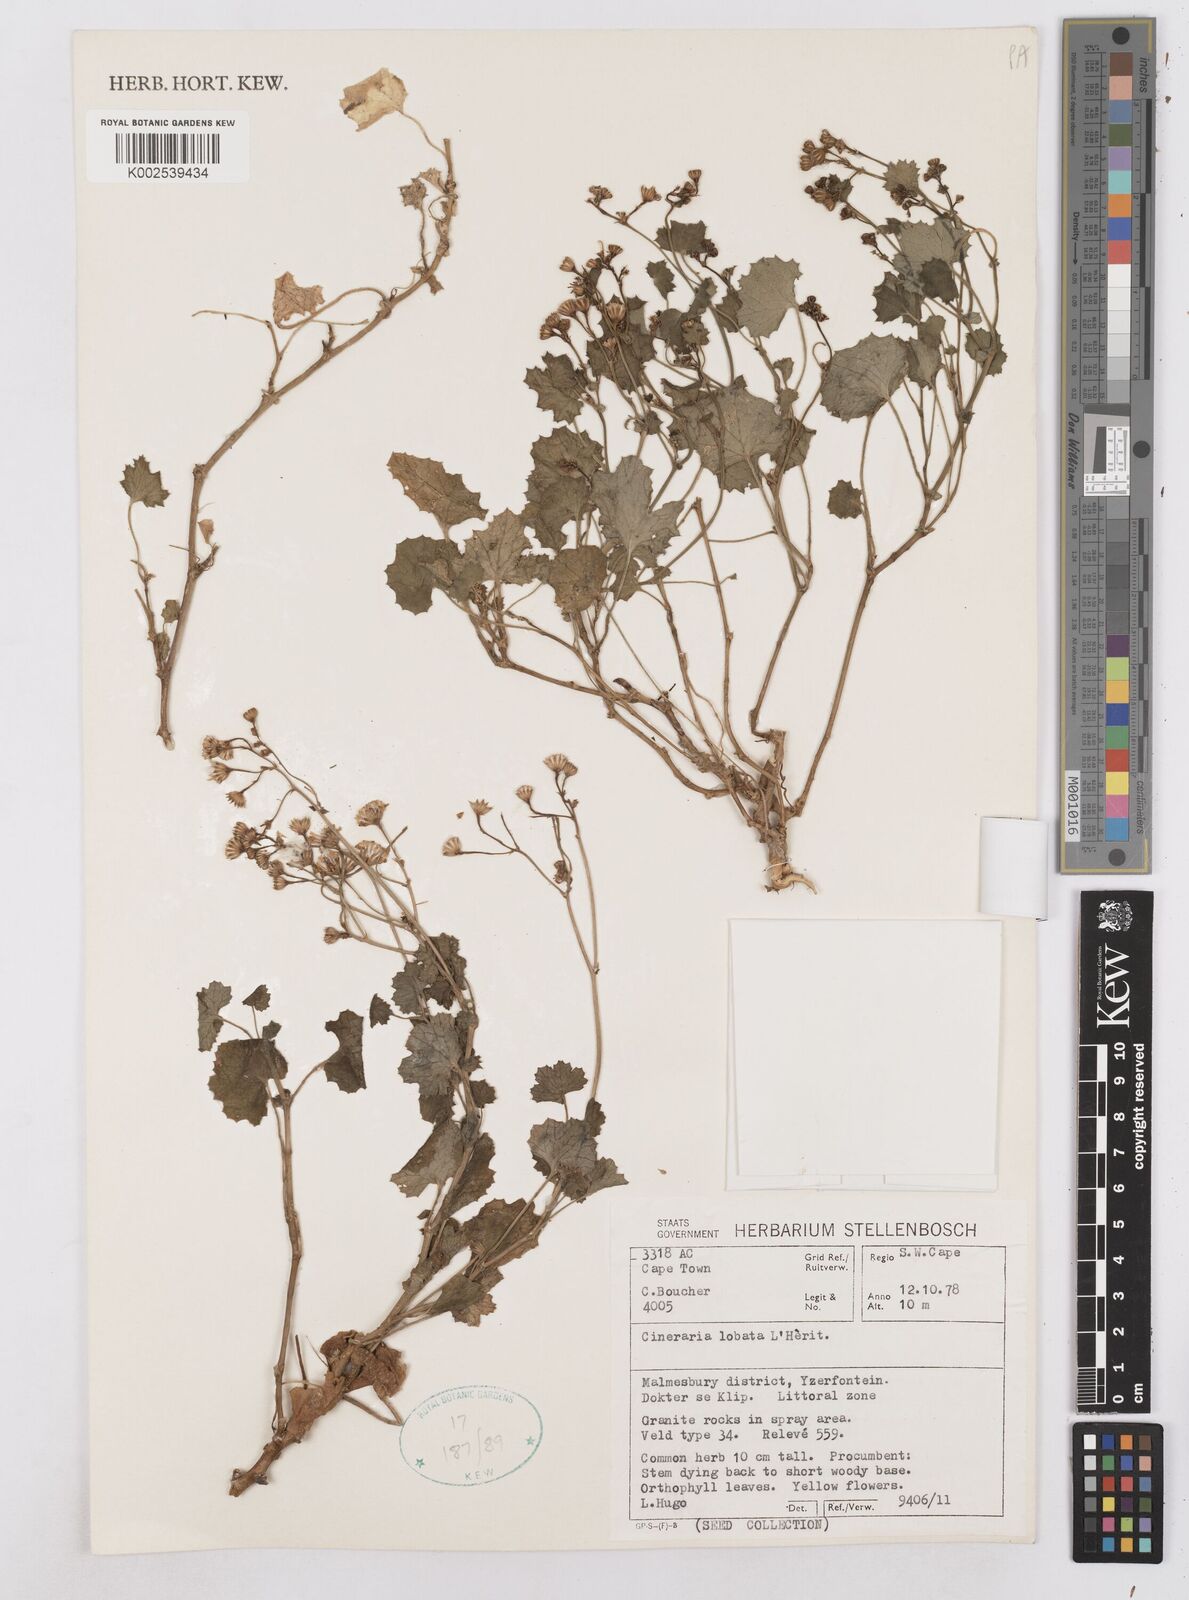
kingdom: Plantae
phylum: Tracheophyta
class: Magnoliopsida
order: Asterales
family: Asteraceae
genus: Cineraria
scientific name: Cineraria lobata
